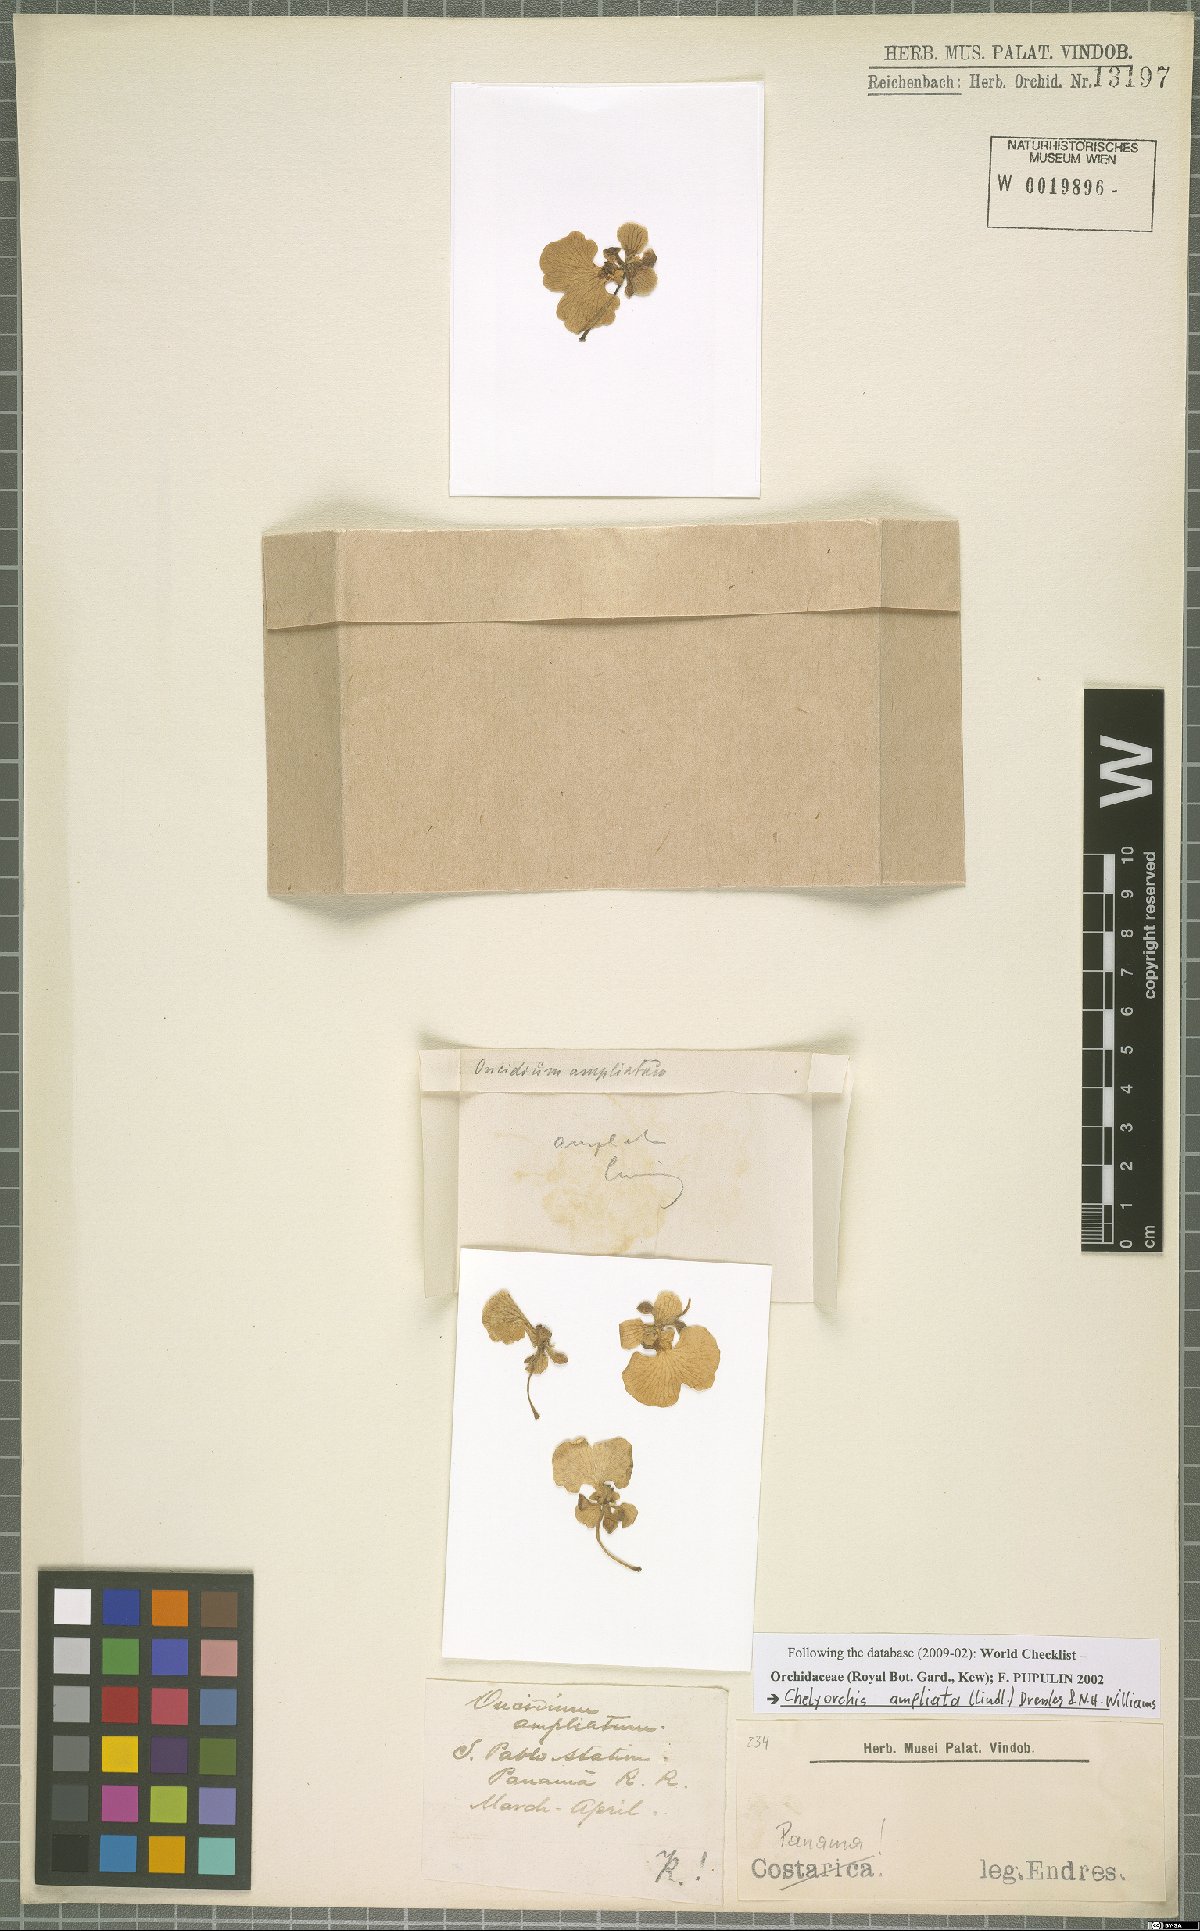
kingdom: Plantae
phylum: Tracheophyta
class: Liliopsida
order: Asparagales
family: Orchidaceae
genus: Rossioglossum
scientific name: Rossioglossum ampliatum
